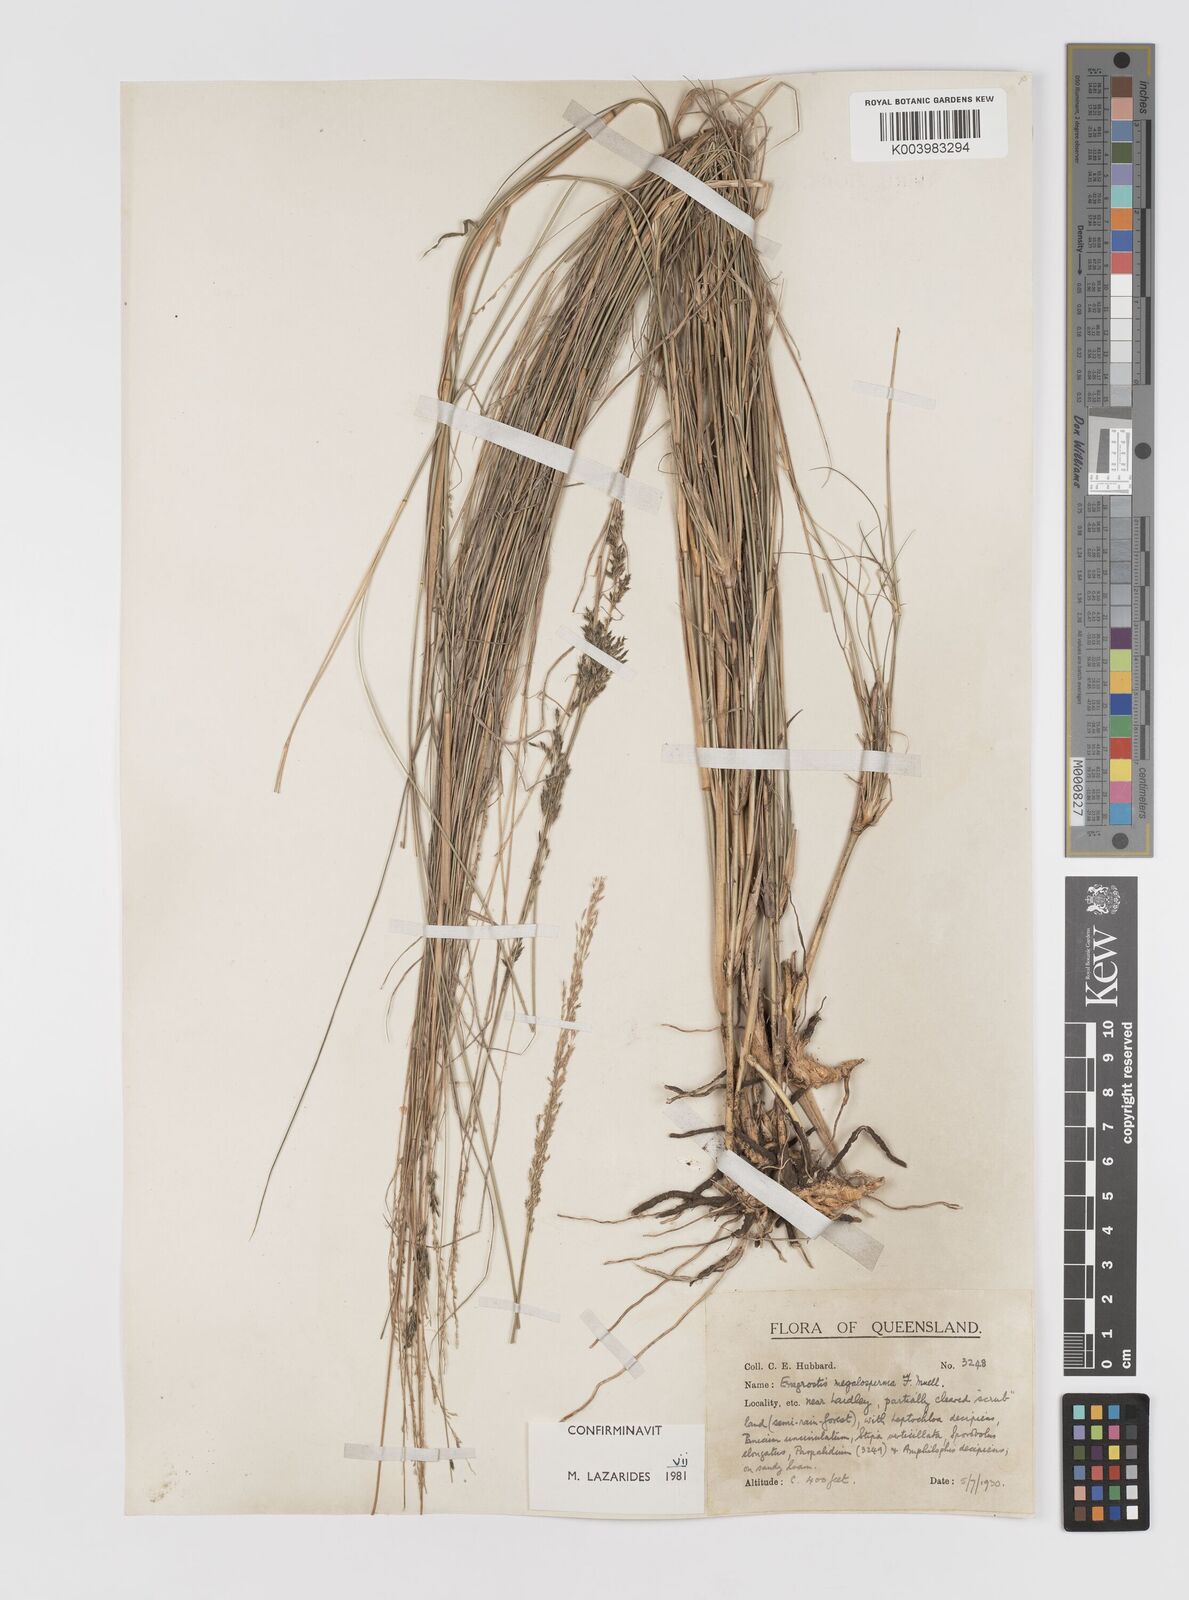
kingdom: Plantae
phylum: Tracheophyta
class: Liliopsida
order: Poales
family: Poaceae
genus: Sporobolus
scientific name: Sporobolus megalospermus
